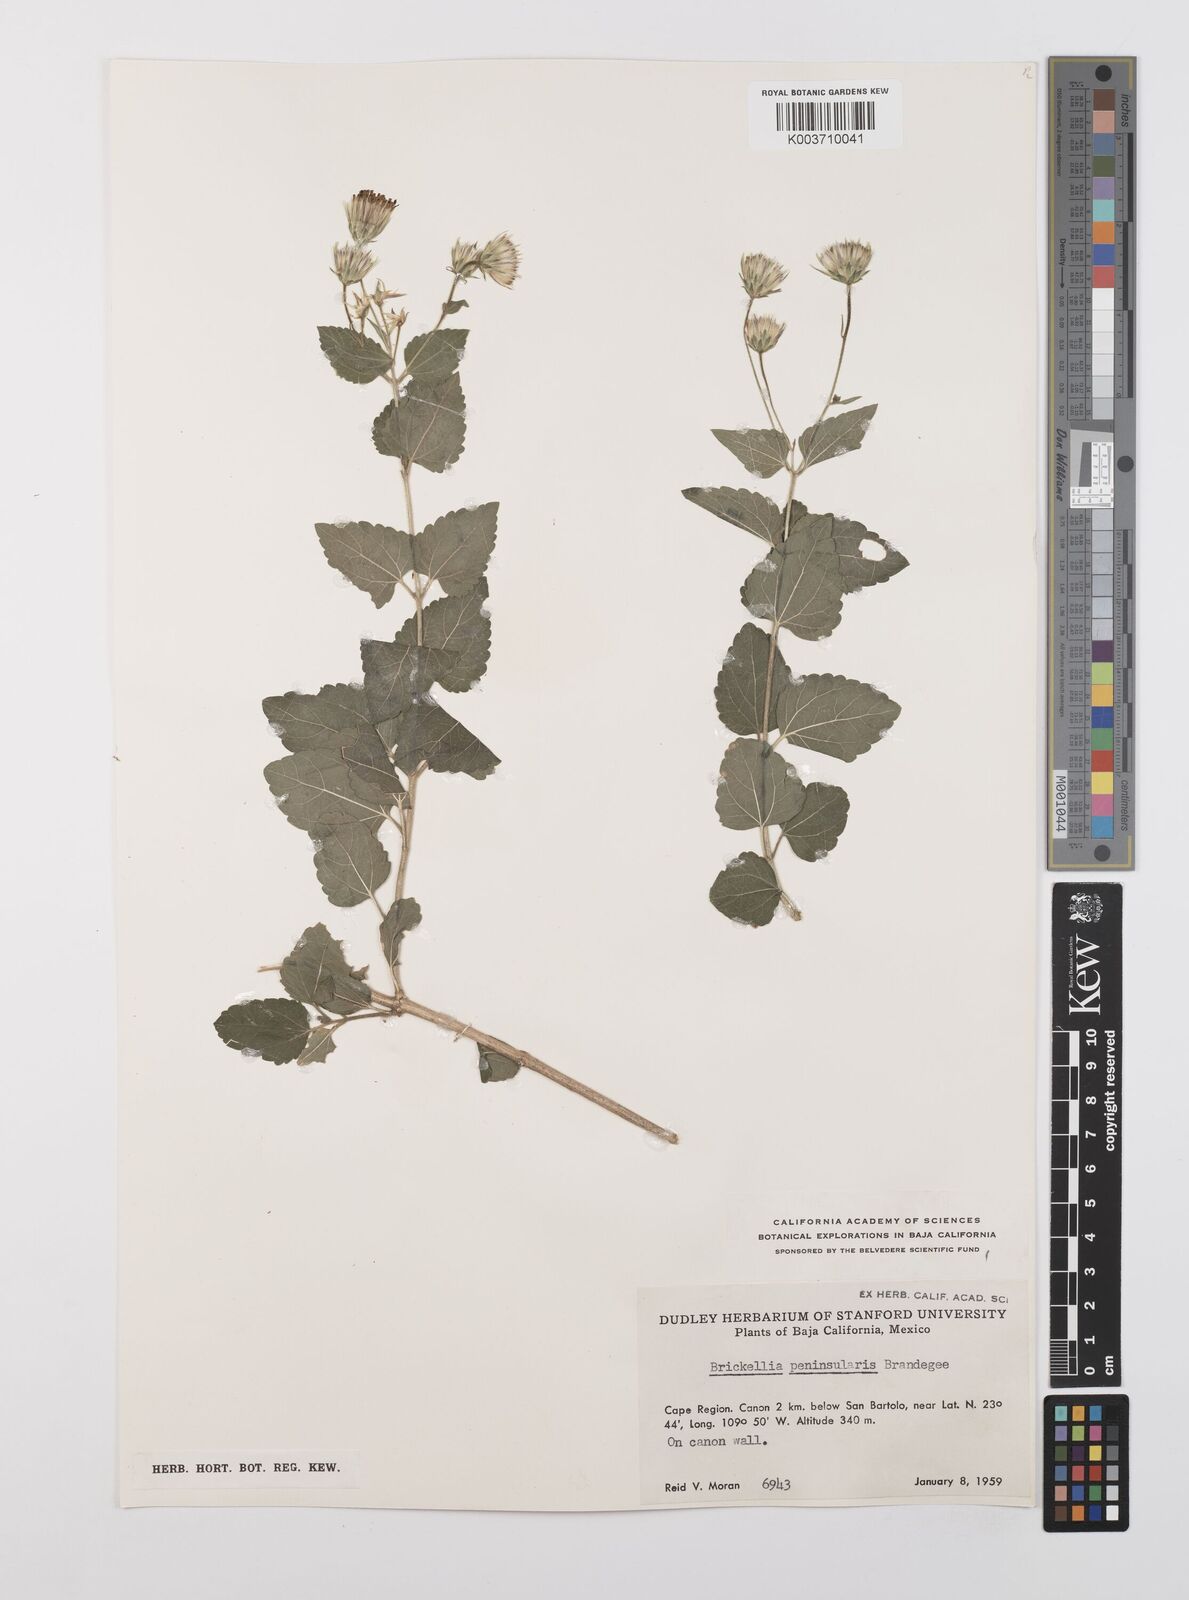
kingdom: Plantae
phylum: Tracheophyta
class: Magnoliopsida
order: Asterales
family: Asteraceae
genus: Brickellia
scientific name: Brickellia peninsularis
